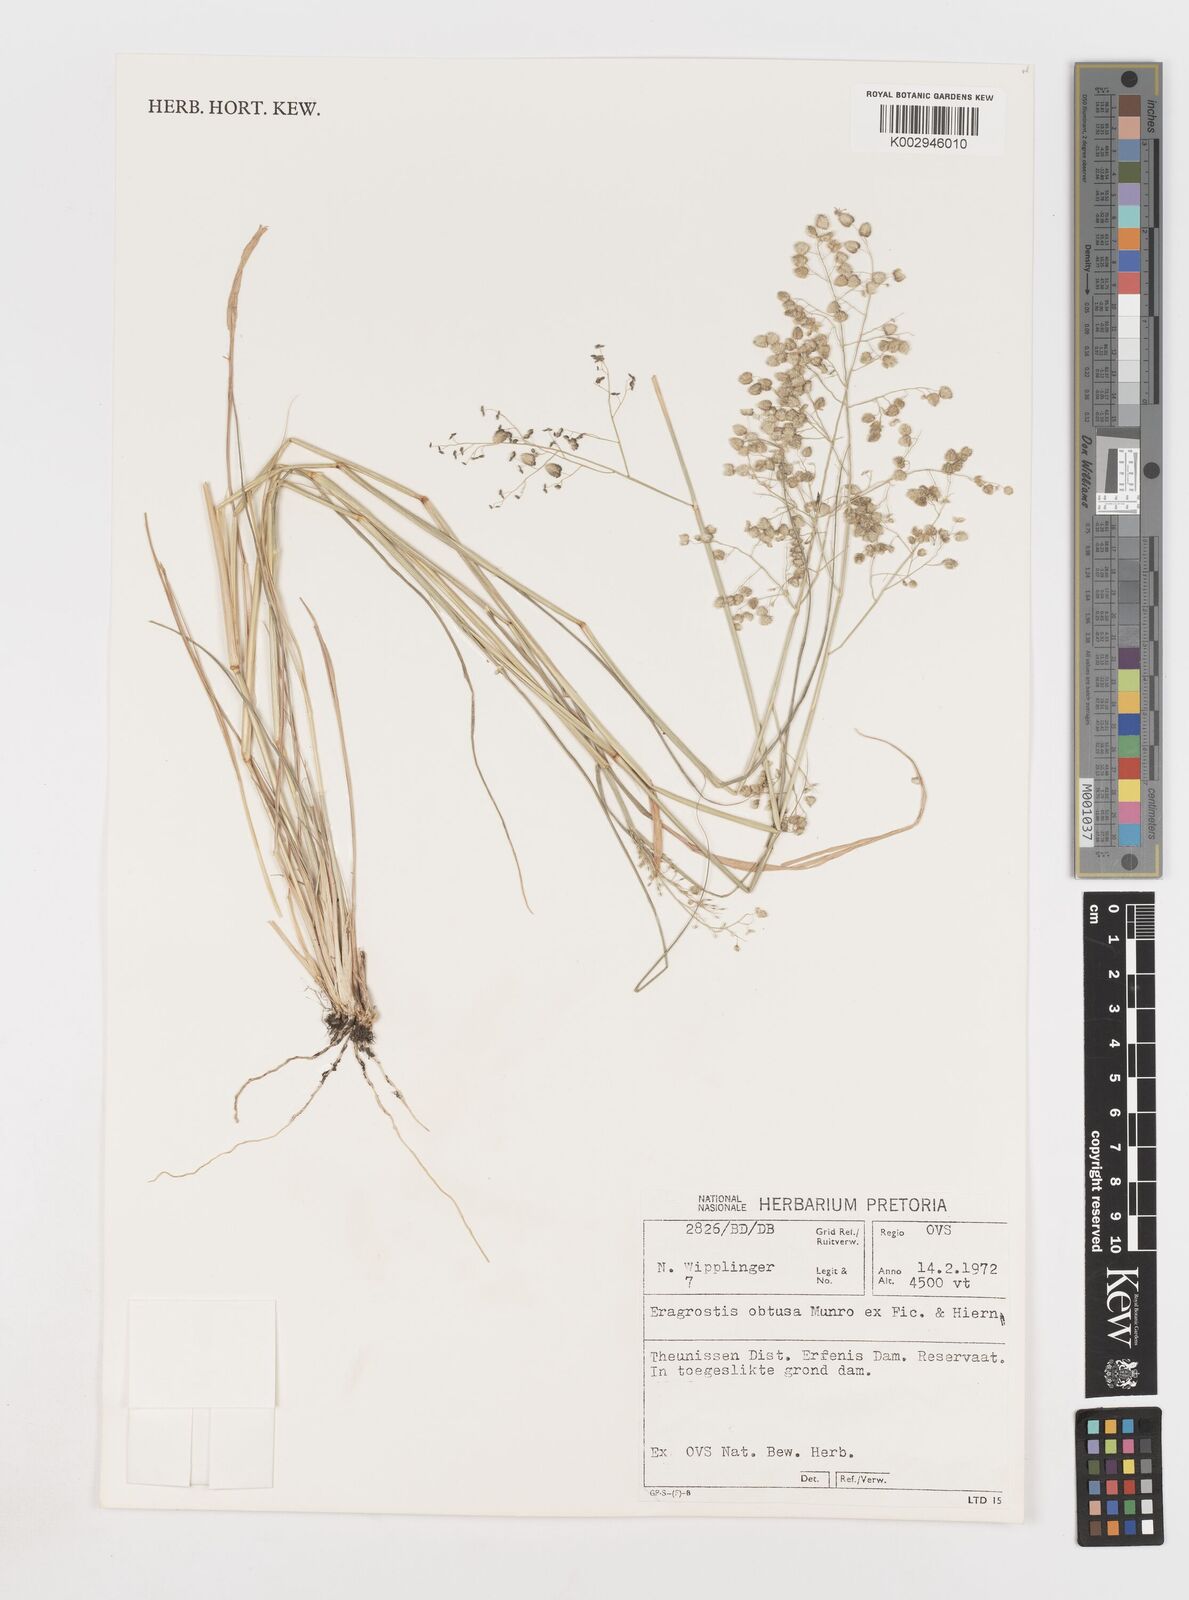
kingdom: Plantae
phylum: Tracheophyta
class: Liliopsida
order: Poales
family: Poaceae
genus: Eragrostis
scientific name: Eragrostis obtusa
